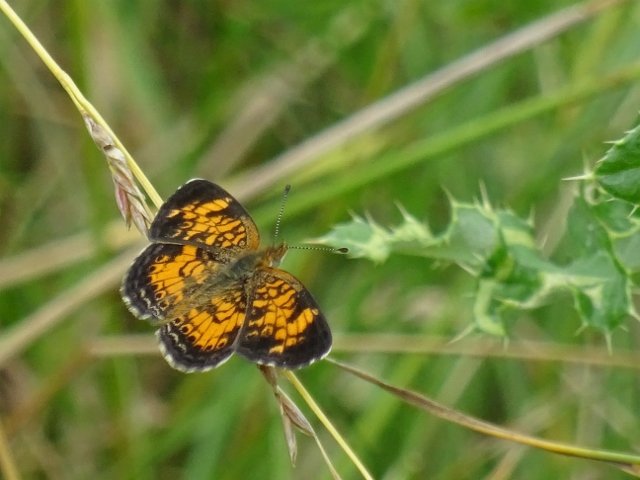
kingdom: Animalia
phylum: Arthropoda
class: Insecta
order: Lepidoptera
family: Nymphalidae
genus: Phyciodes
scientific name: Phyciodes tharos
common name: Pearl Crescent
